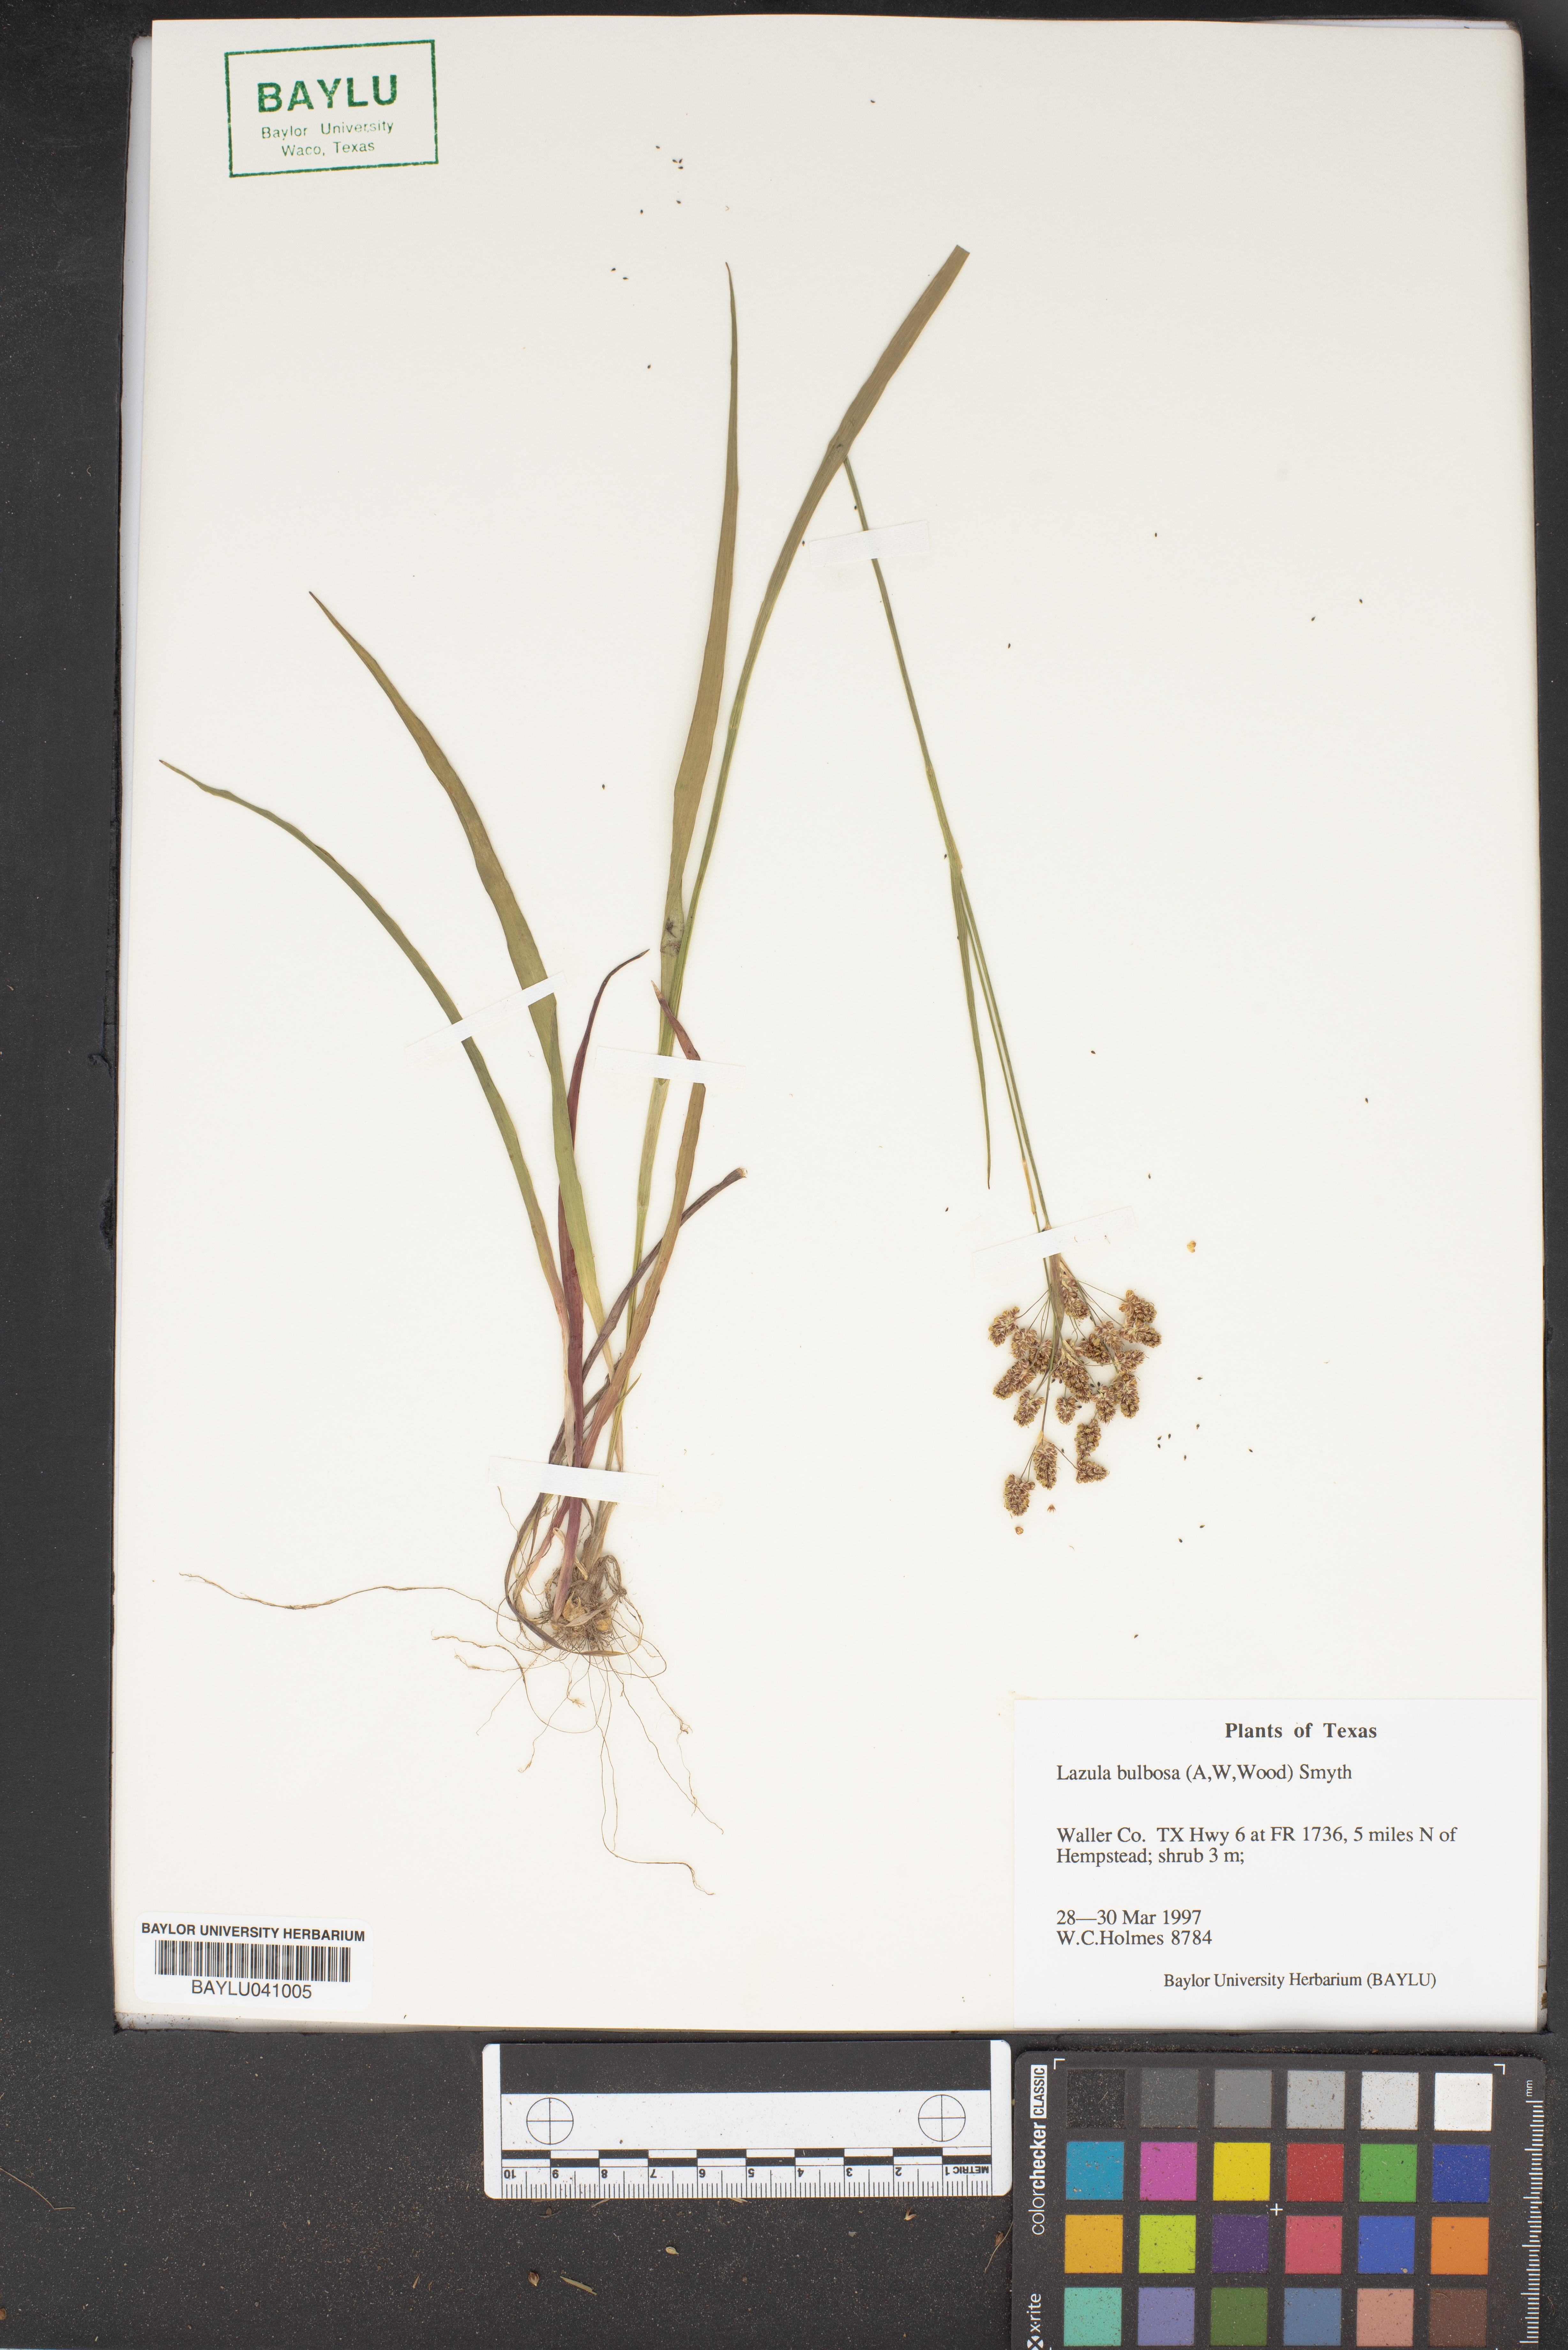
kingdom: Plantae
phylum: Tracheophyta
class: Liliopsida
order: Poales
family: Juncaceae
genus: Luzula
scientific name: Luzula bulbosa
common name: Bulbous woodrush
